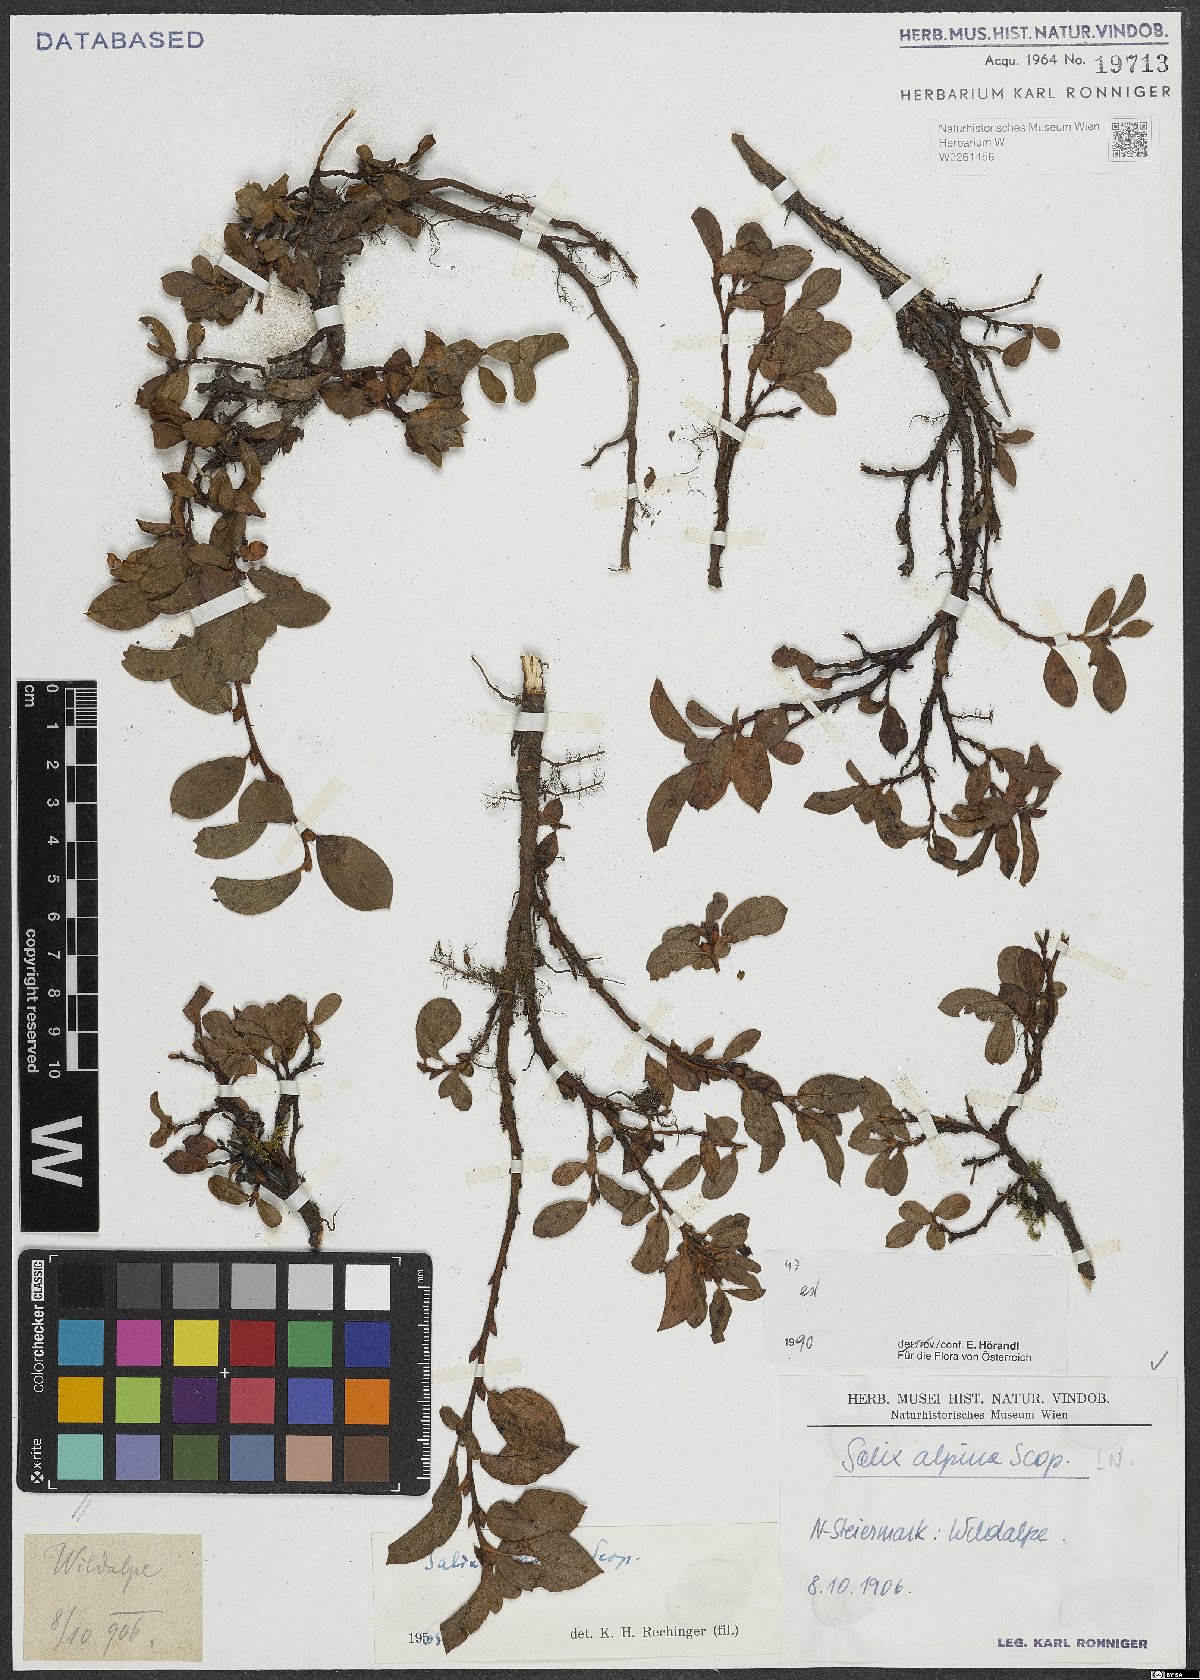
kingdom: Plantae
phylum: Tracheophyta
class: Magnoliopsida
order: Malpighiales
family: Salicaceae
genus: Salix
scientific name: Salix alpina
